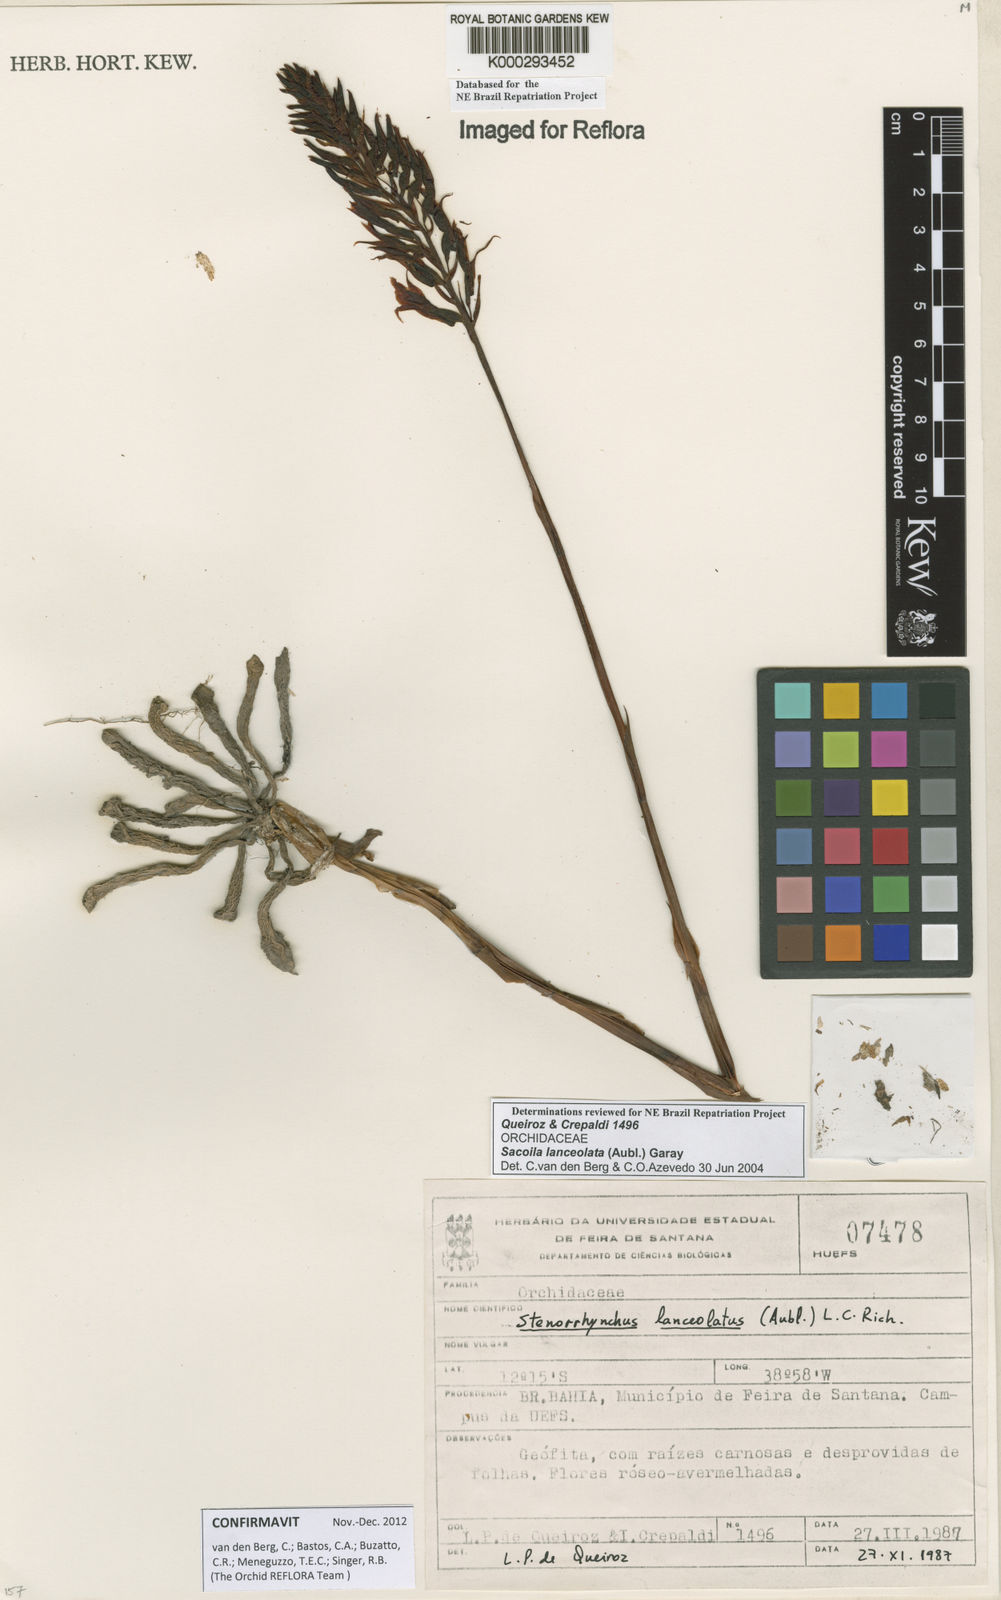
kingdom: Plantae
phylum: Tracheophyta
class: Liliopsida
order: Asparagales
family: Orchidaceae
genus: Sacoila
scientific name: Sacoila lanceolata
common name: Leafless beaked ladiestresses
